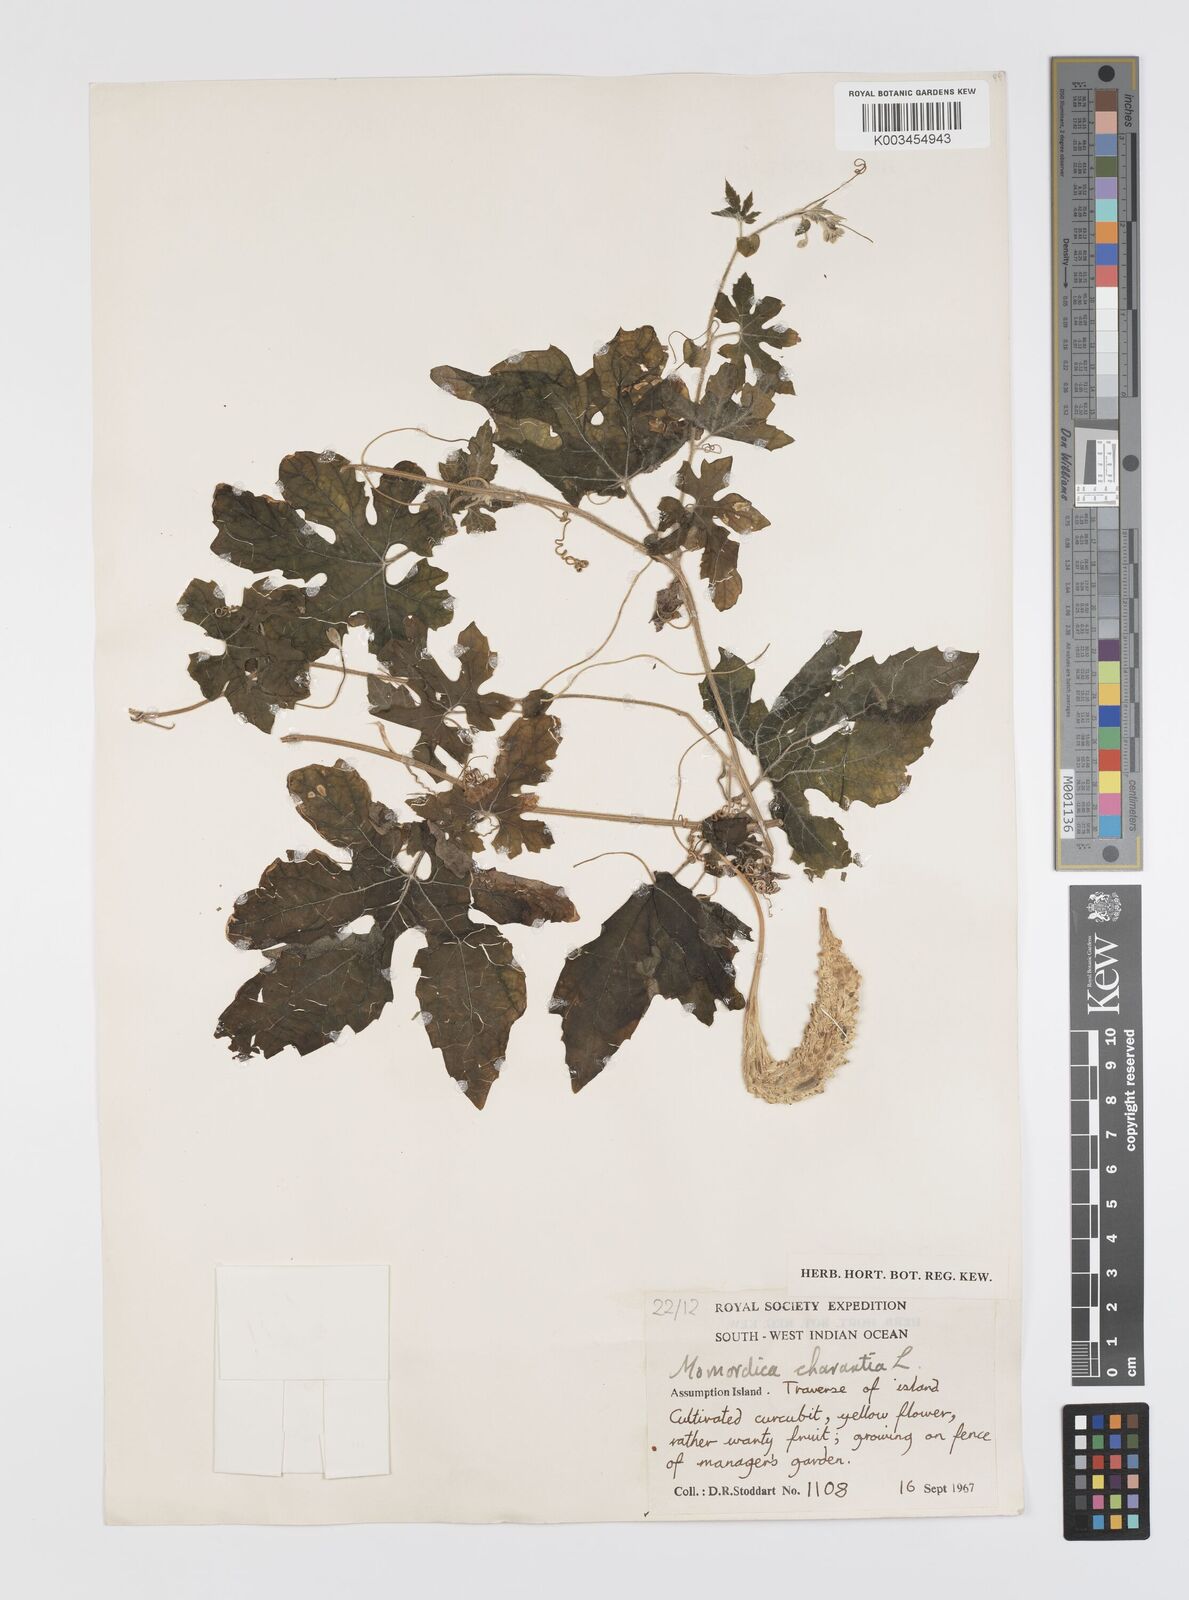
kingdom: Plantae
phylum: Tracheophyta
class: Magnoliopsida
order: Cucurbitales
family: Cucurbitaceae
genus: Momordica
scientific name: Momordica charantia
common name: Balsampear
